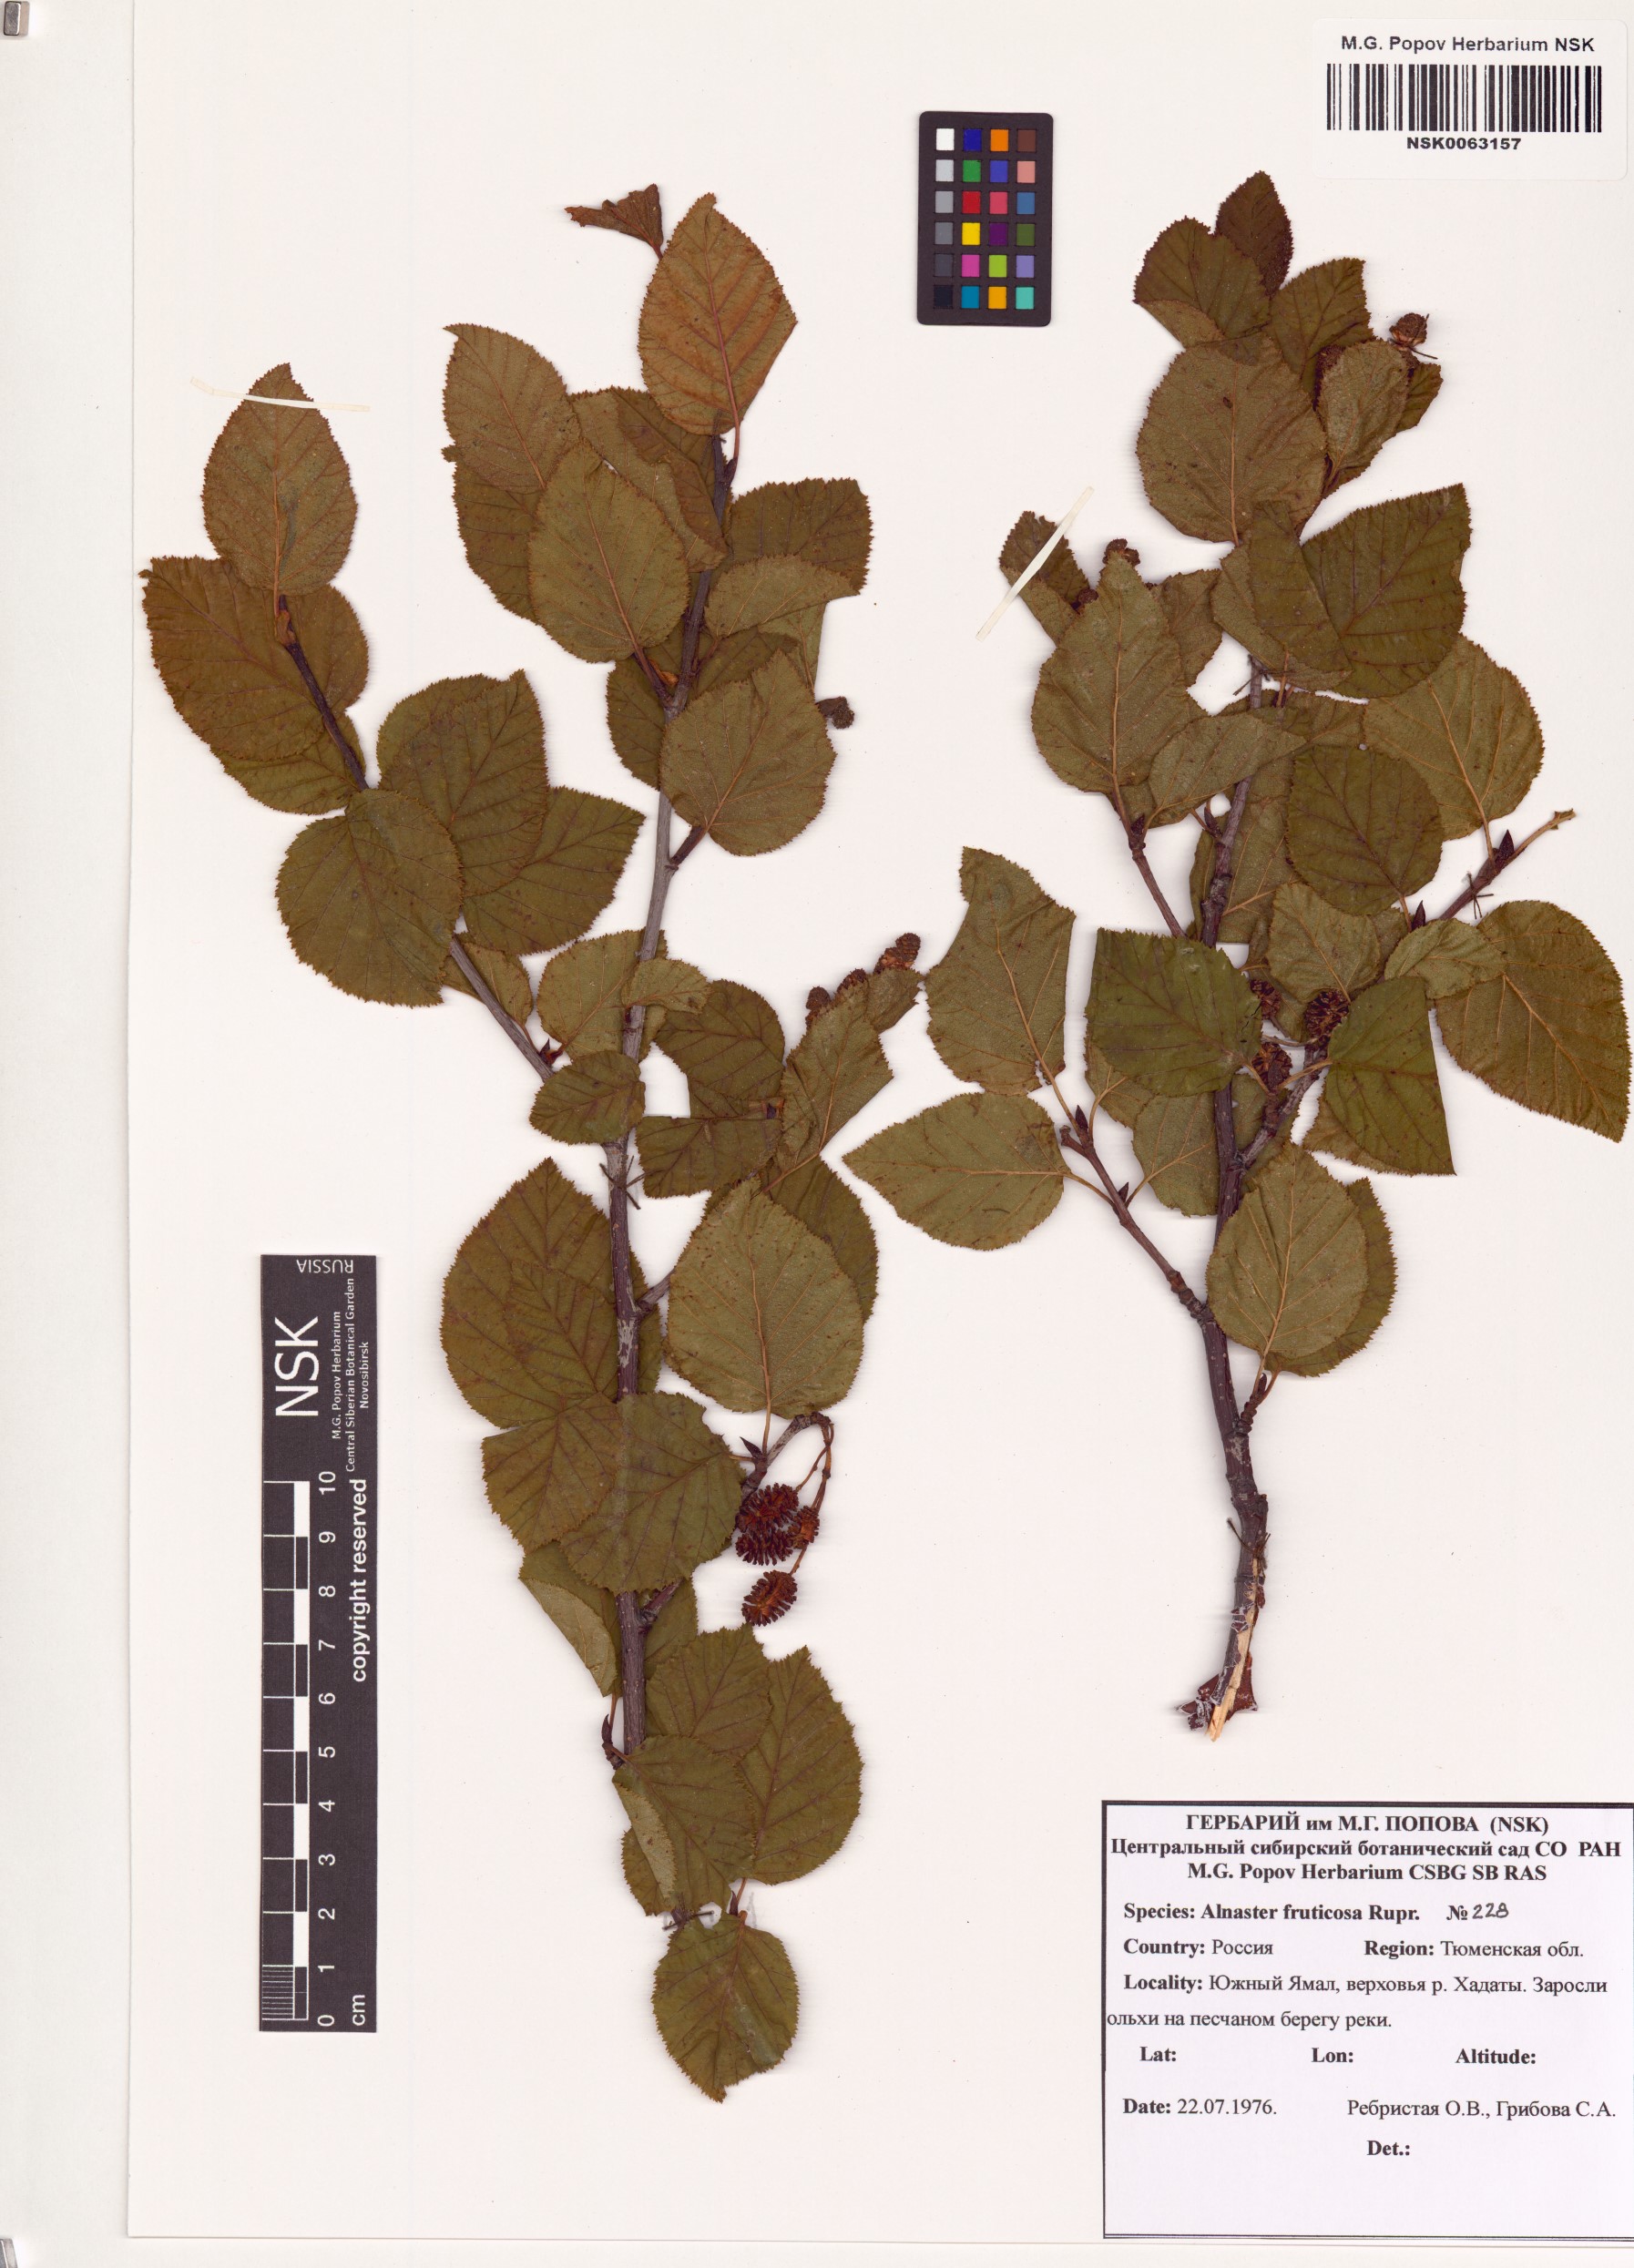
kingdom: Plantae
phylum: Tracheophyta
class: Magnoliopsida
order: Fagales
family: Betulaceae
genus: Alnus
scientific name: Alnus alnobetula
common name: Green alder
